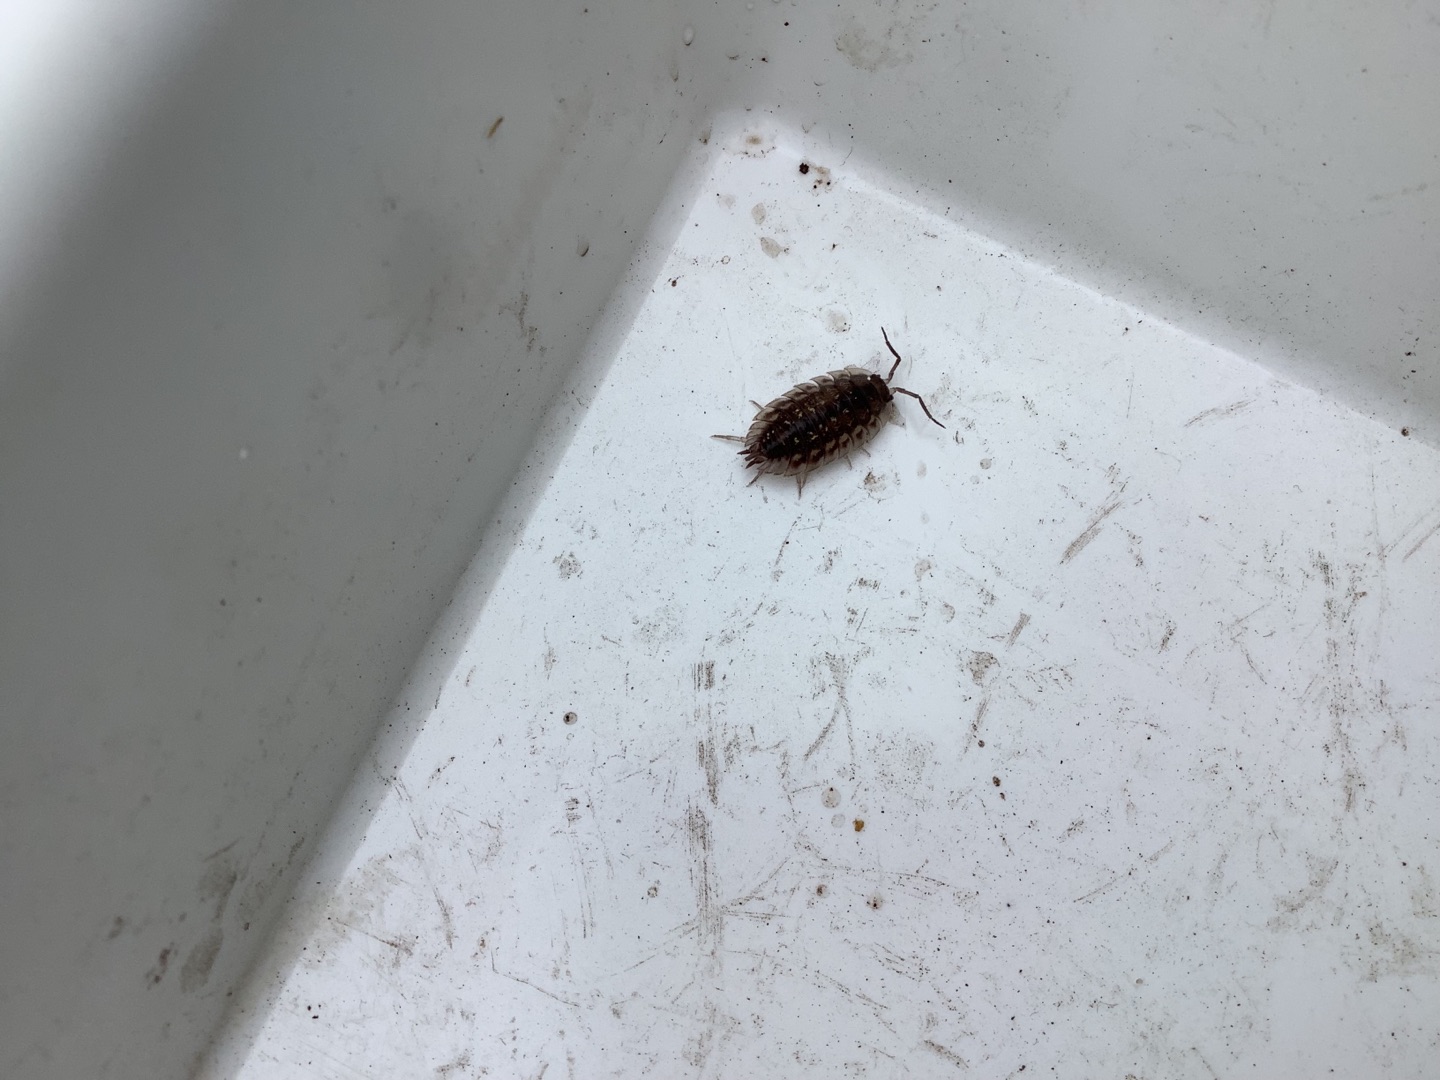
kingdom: Animalia
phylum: Arthropoda
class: Malacostraca
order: Isopoda
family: Oniscidae
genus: Oniscus
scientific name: Oniscus asellus
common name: Glat bænkebider
